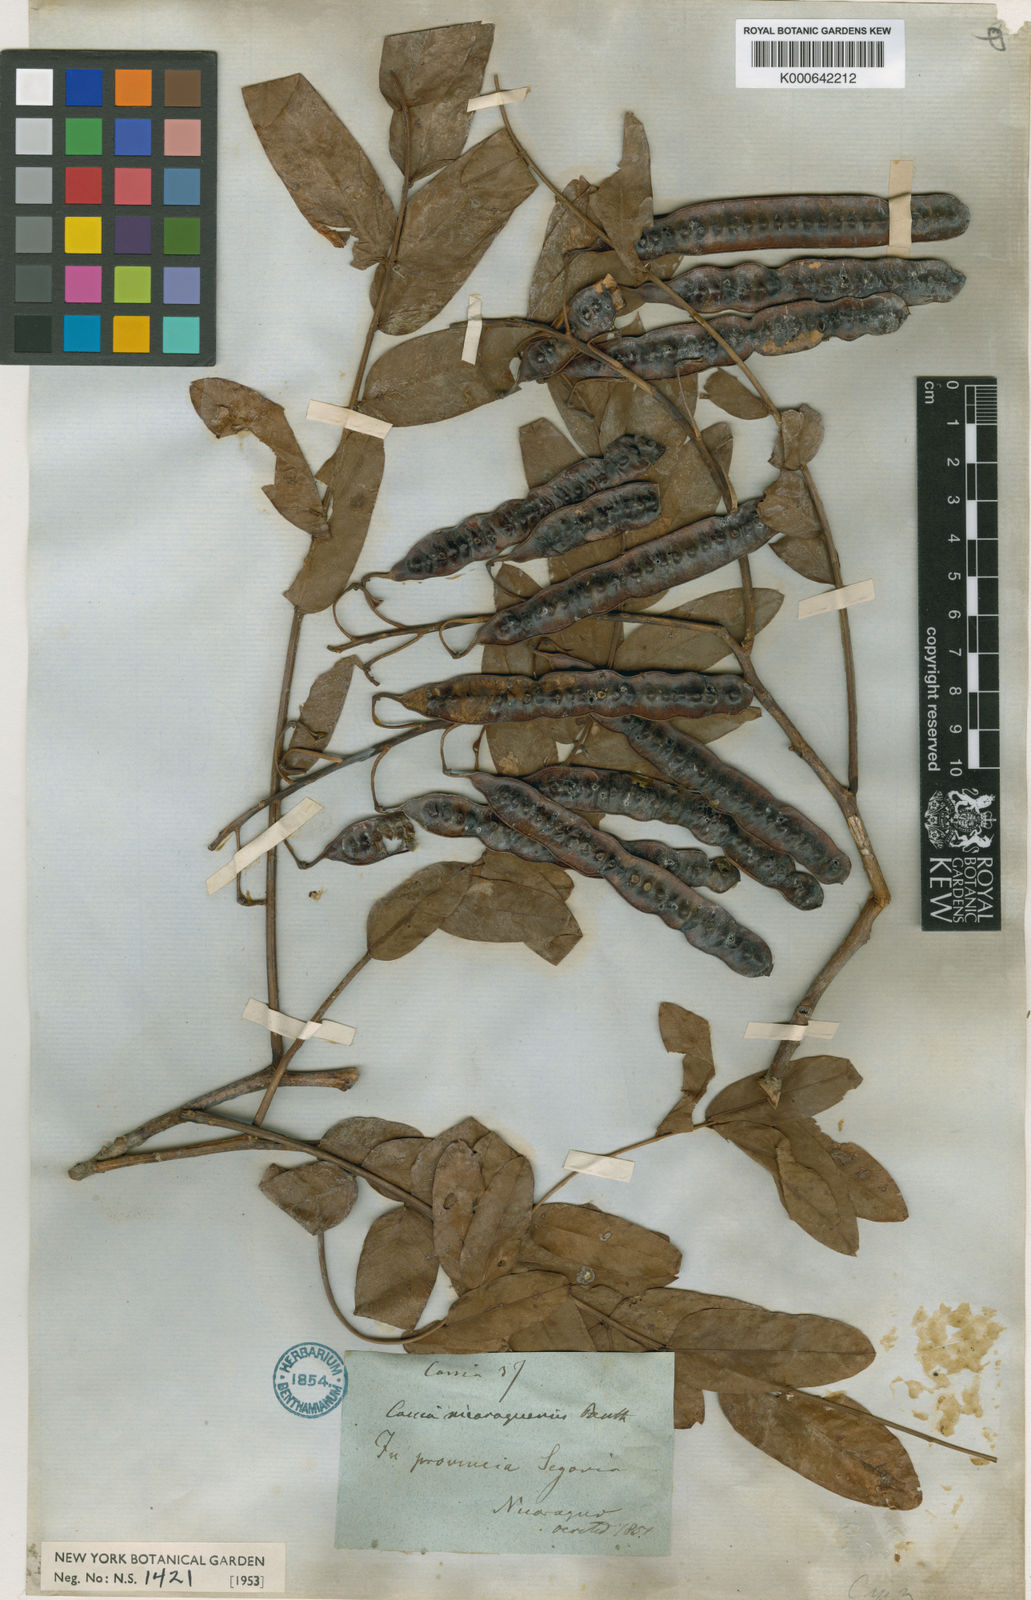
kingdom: Plantae
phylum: Tracheophyta
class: Magnoliopsida
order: Fabales
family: Fabaceae
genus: Senna
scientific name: Senna
